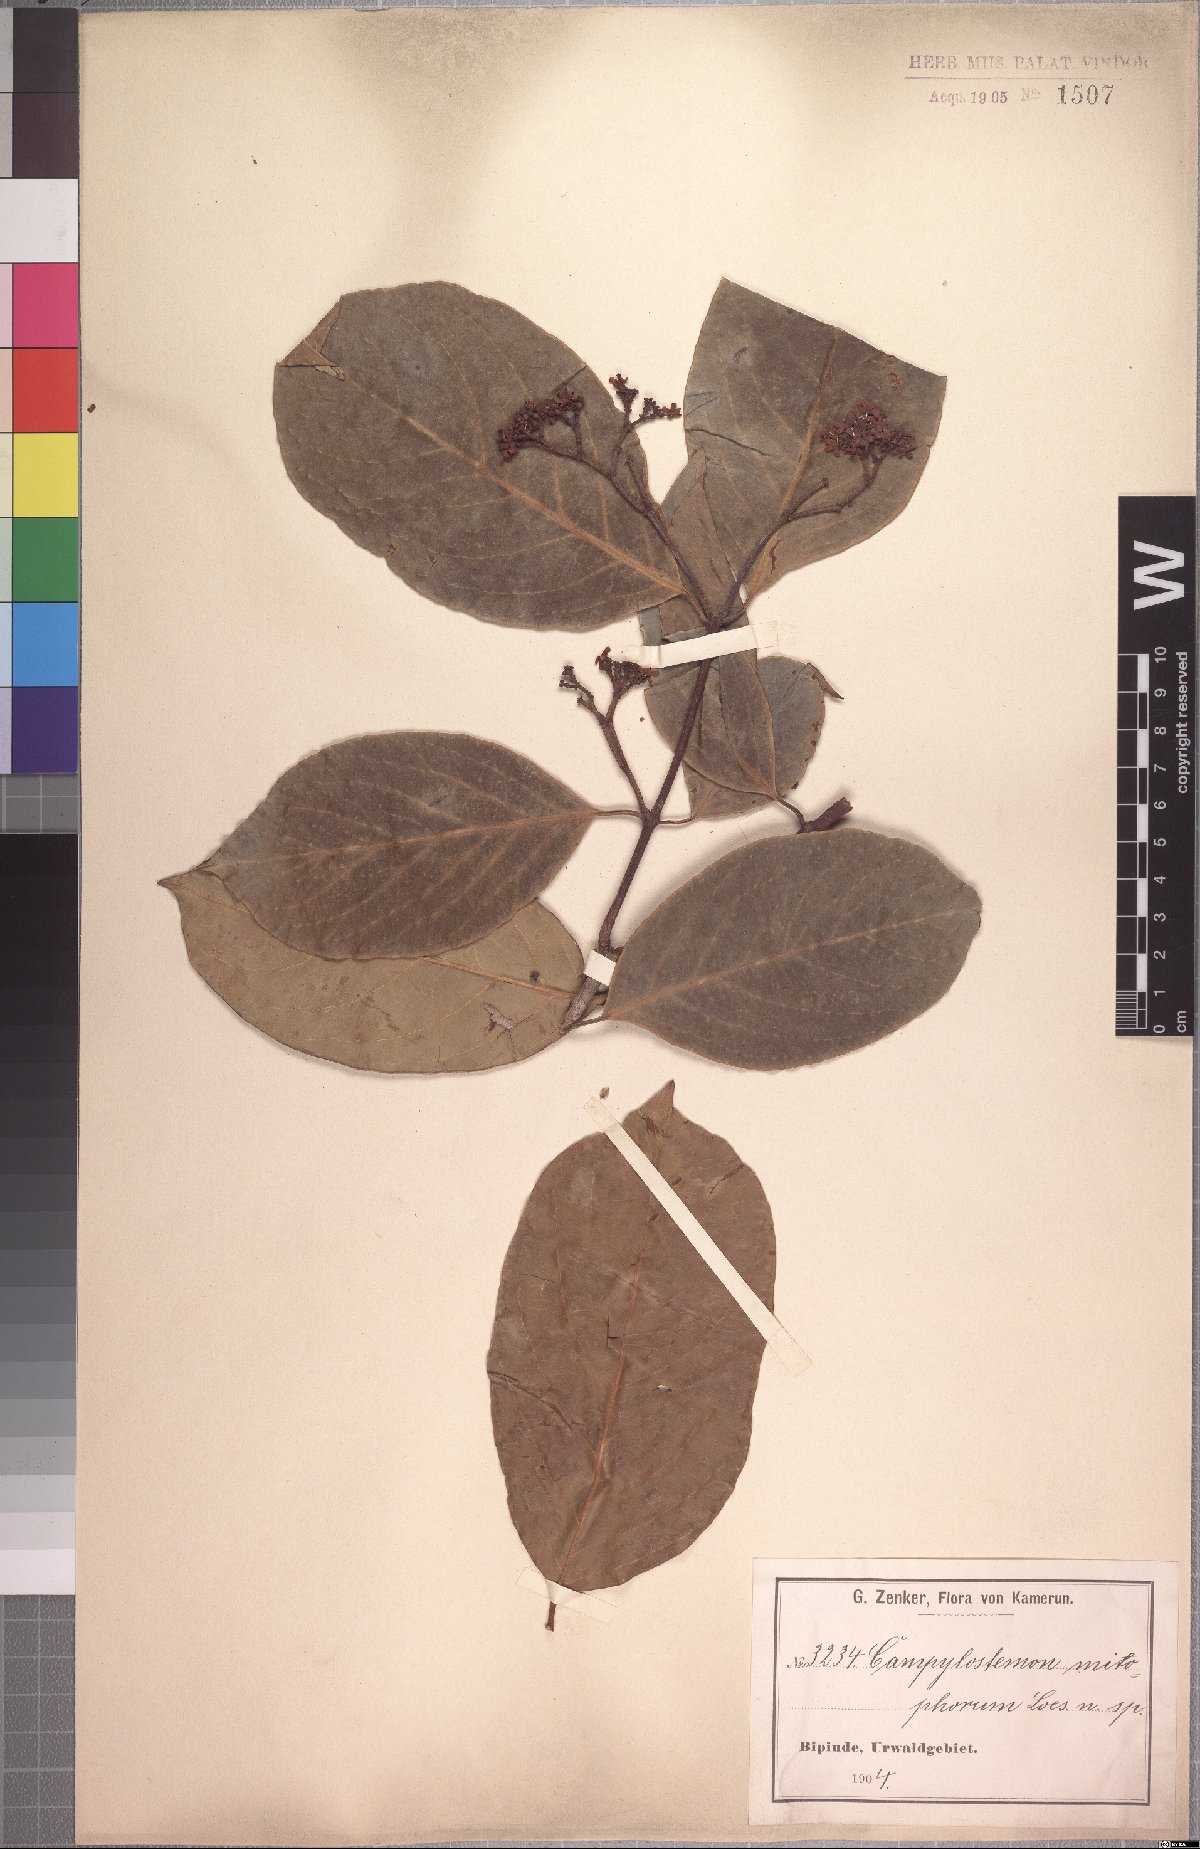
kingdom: Plantae
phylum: Tracheophyta
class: Magnoliopsida
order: Celastrales
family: Celastraceae
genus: Campylostemon
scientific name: Campylostemon mitophorum
